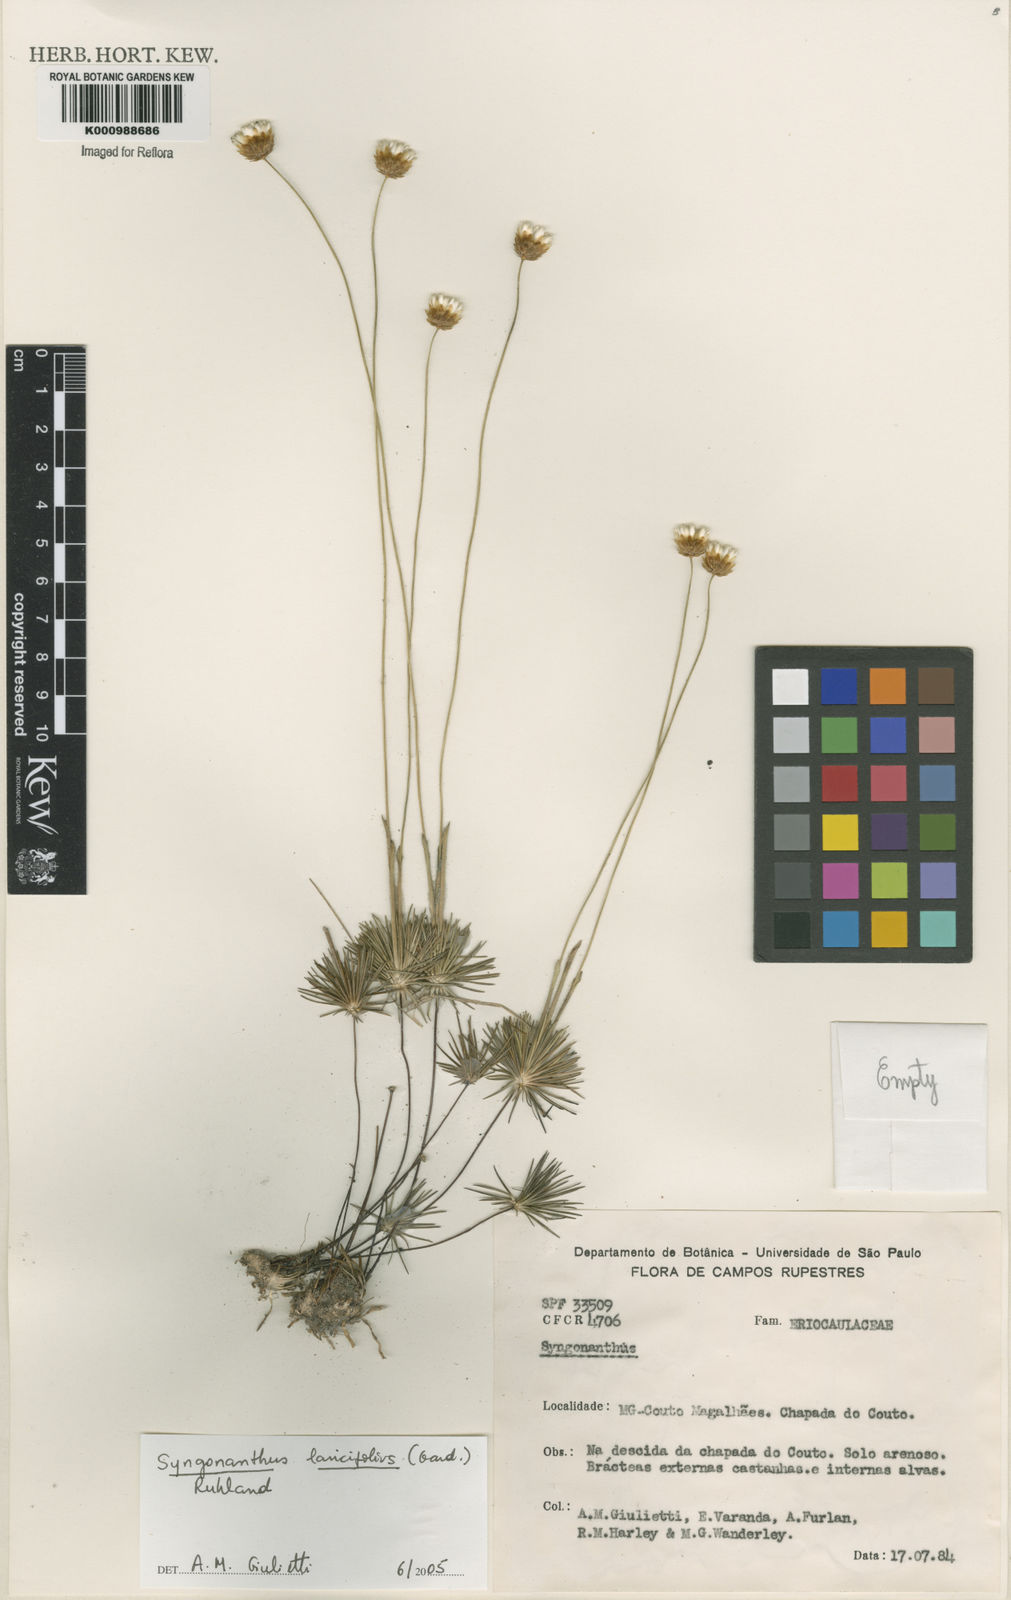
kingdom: Plantae
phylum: Tracheophyta
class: Liliopsida
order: Poales
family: Eriocaulaceae
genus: Syngonanthus
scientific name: Syngonanthus laricifolius
